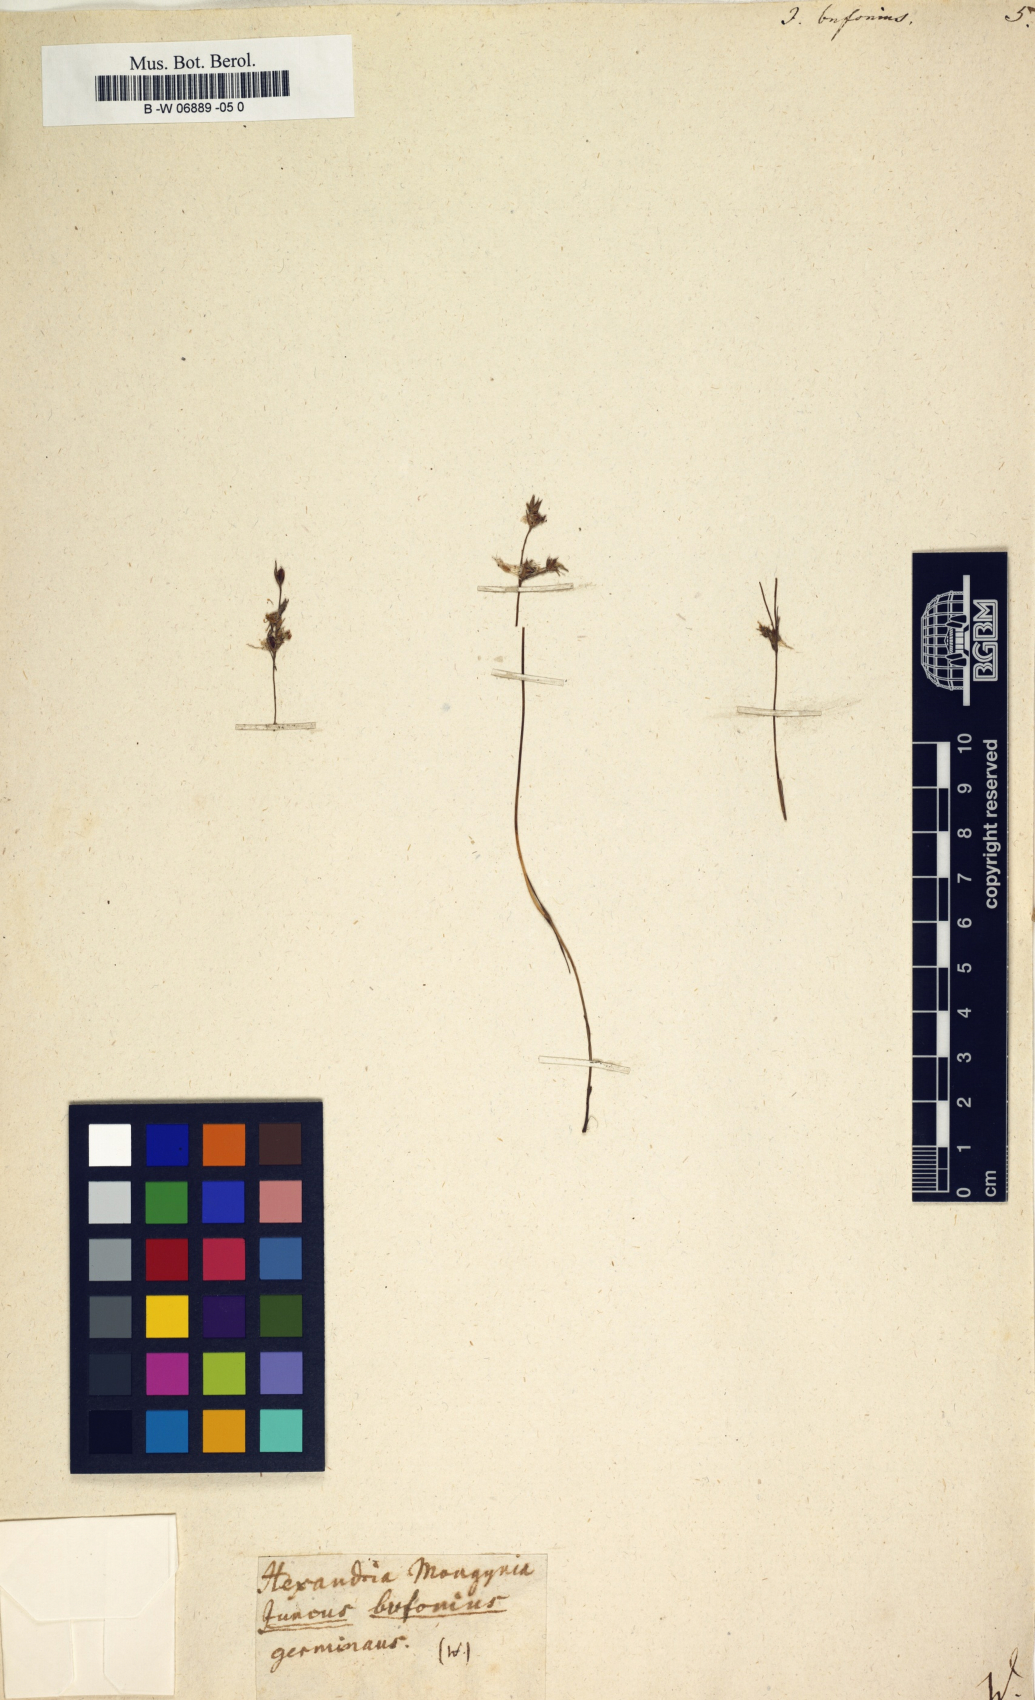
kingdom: Plantae
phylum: Tracheophyta
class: Liliopsida
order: Poales
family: Juncaceae
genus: Juncus
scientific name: Juncus bufonius
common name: Toad rush
